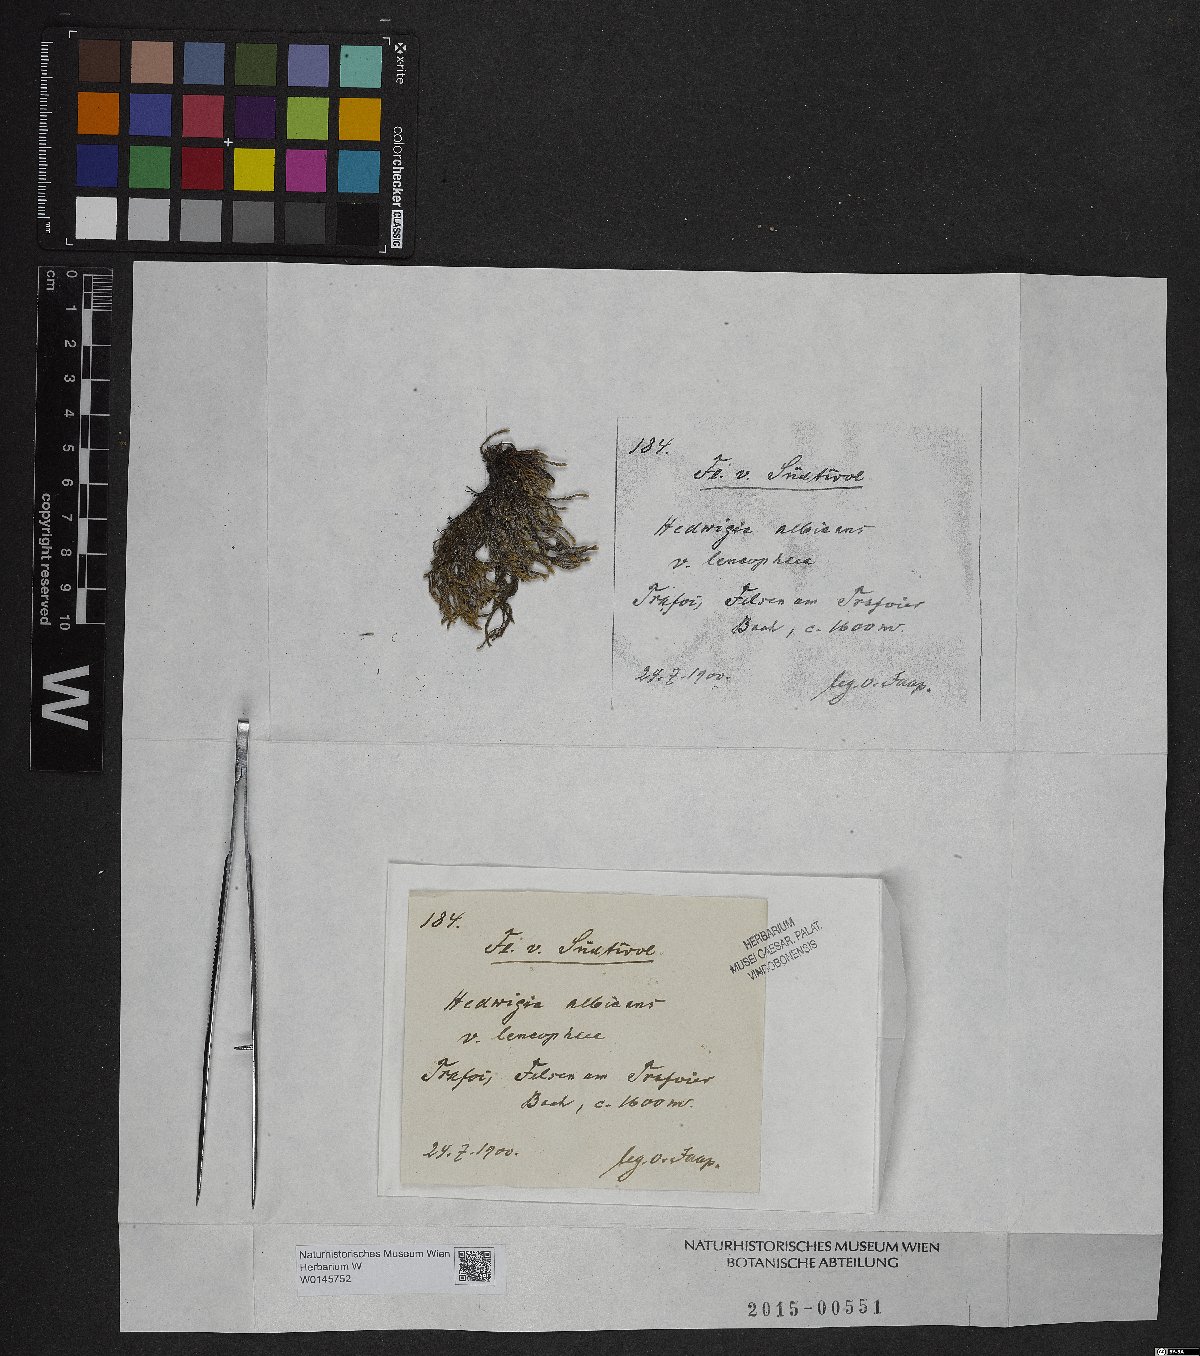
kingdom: Plantae
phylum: Bryophyta
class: Bryopsida
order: Hedwigiales
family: Hedwigiaceae
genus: Hedwigia
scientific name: Hedwigia emodica
